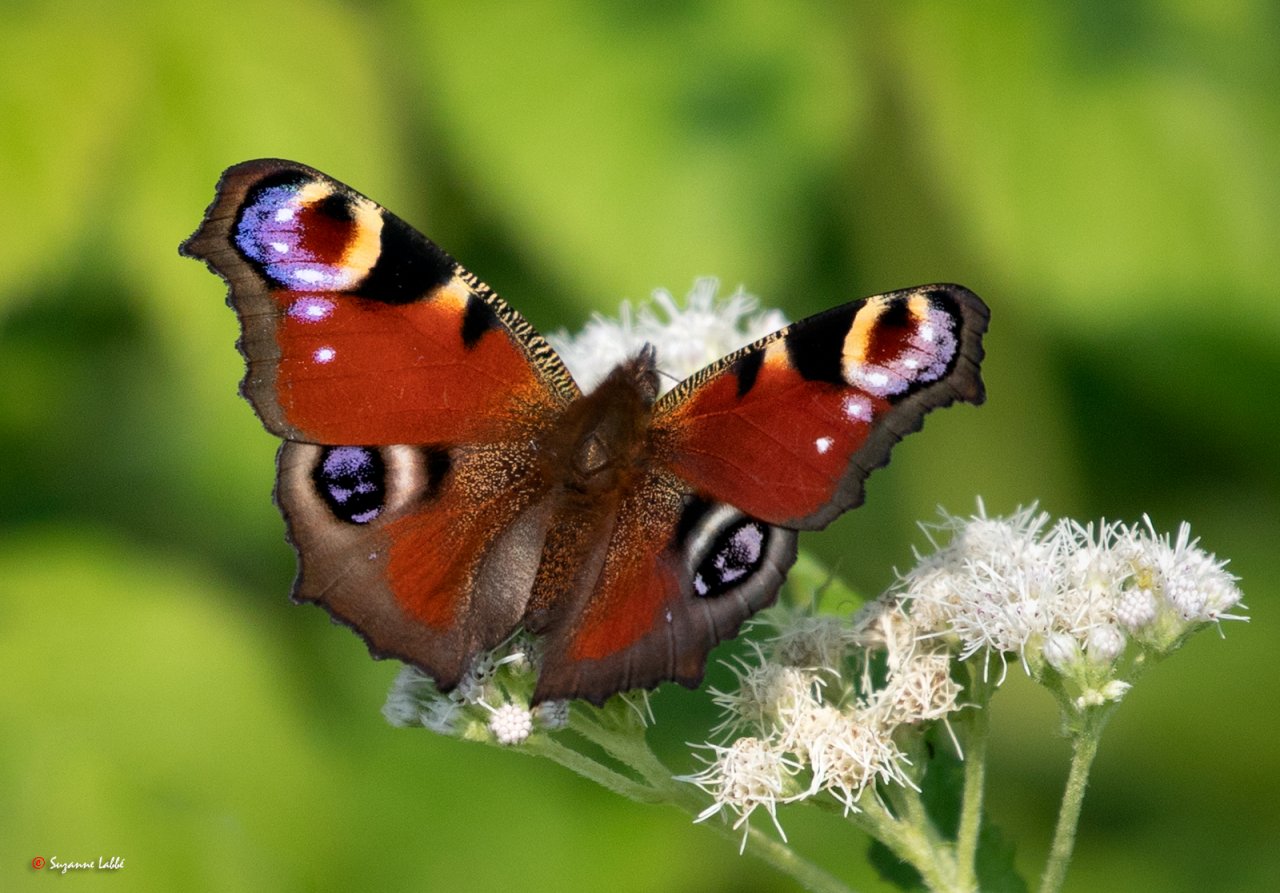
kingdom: Animalia
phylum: Arthropoda
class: Insecta
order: Lepidoptera
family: Nymphalidae
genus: Aglais
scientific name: Aglais io
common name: European Peacock
